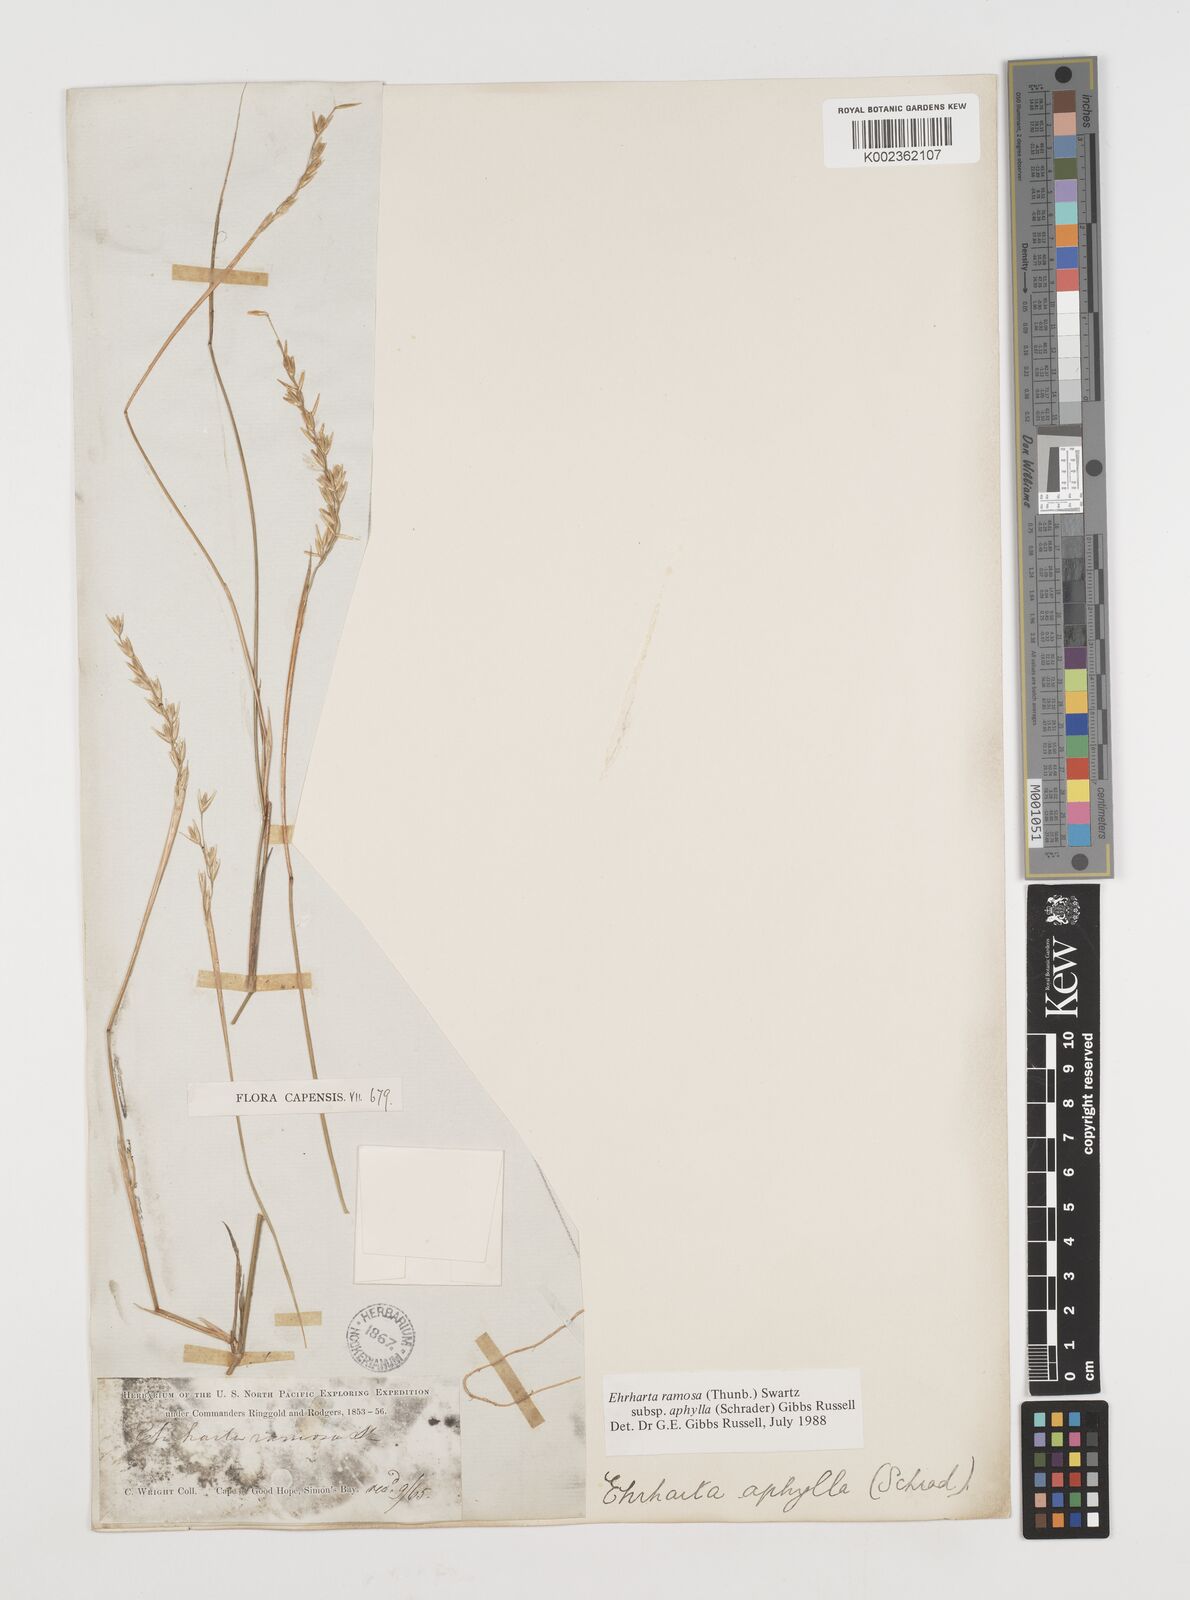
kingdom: Plantae
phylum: Tracheophyta
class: Liliopsida
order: Poales
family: Poaceae
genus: Ehrharta
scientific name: Ehrharta digyna
